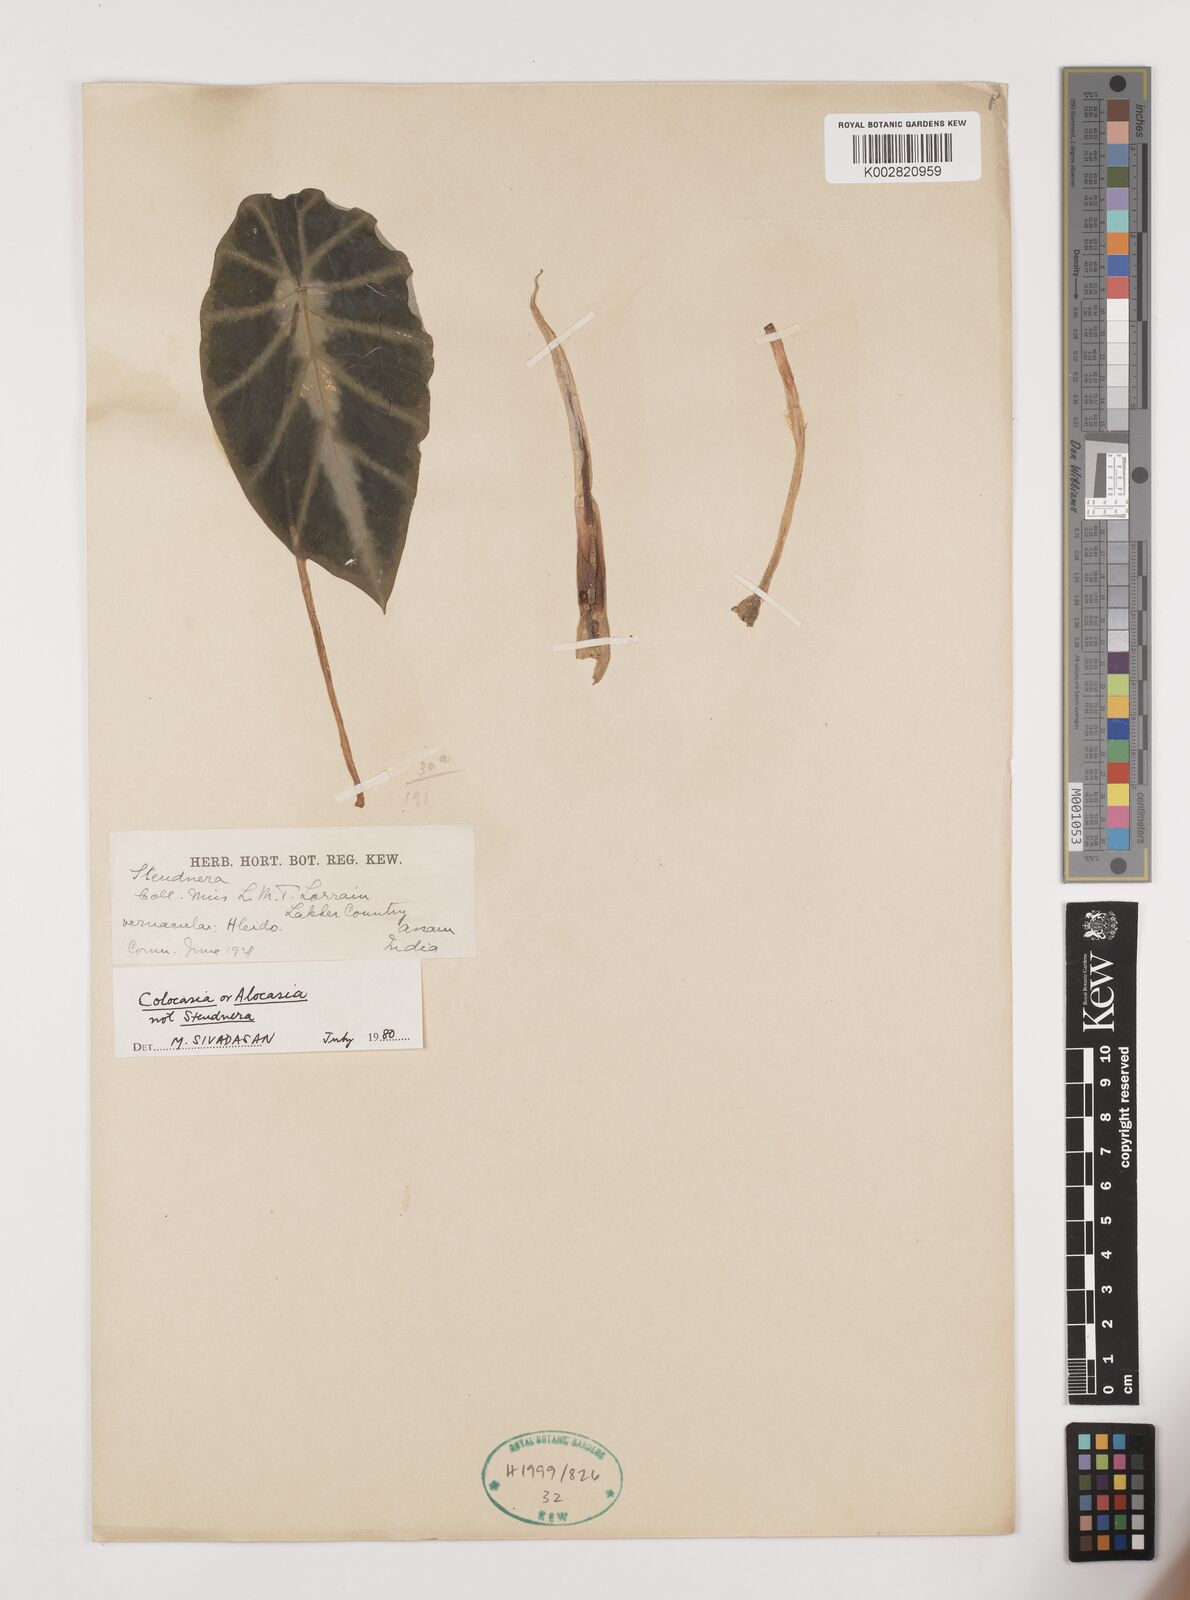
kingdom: Plantae
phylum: Tracheophyta
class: Liliopsida
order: Alismatales
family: Araceae
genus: Alocasia
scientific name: Alocasia
